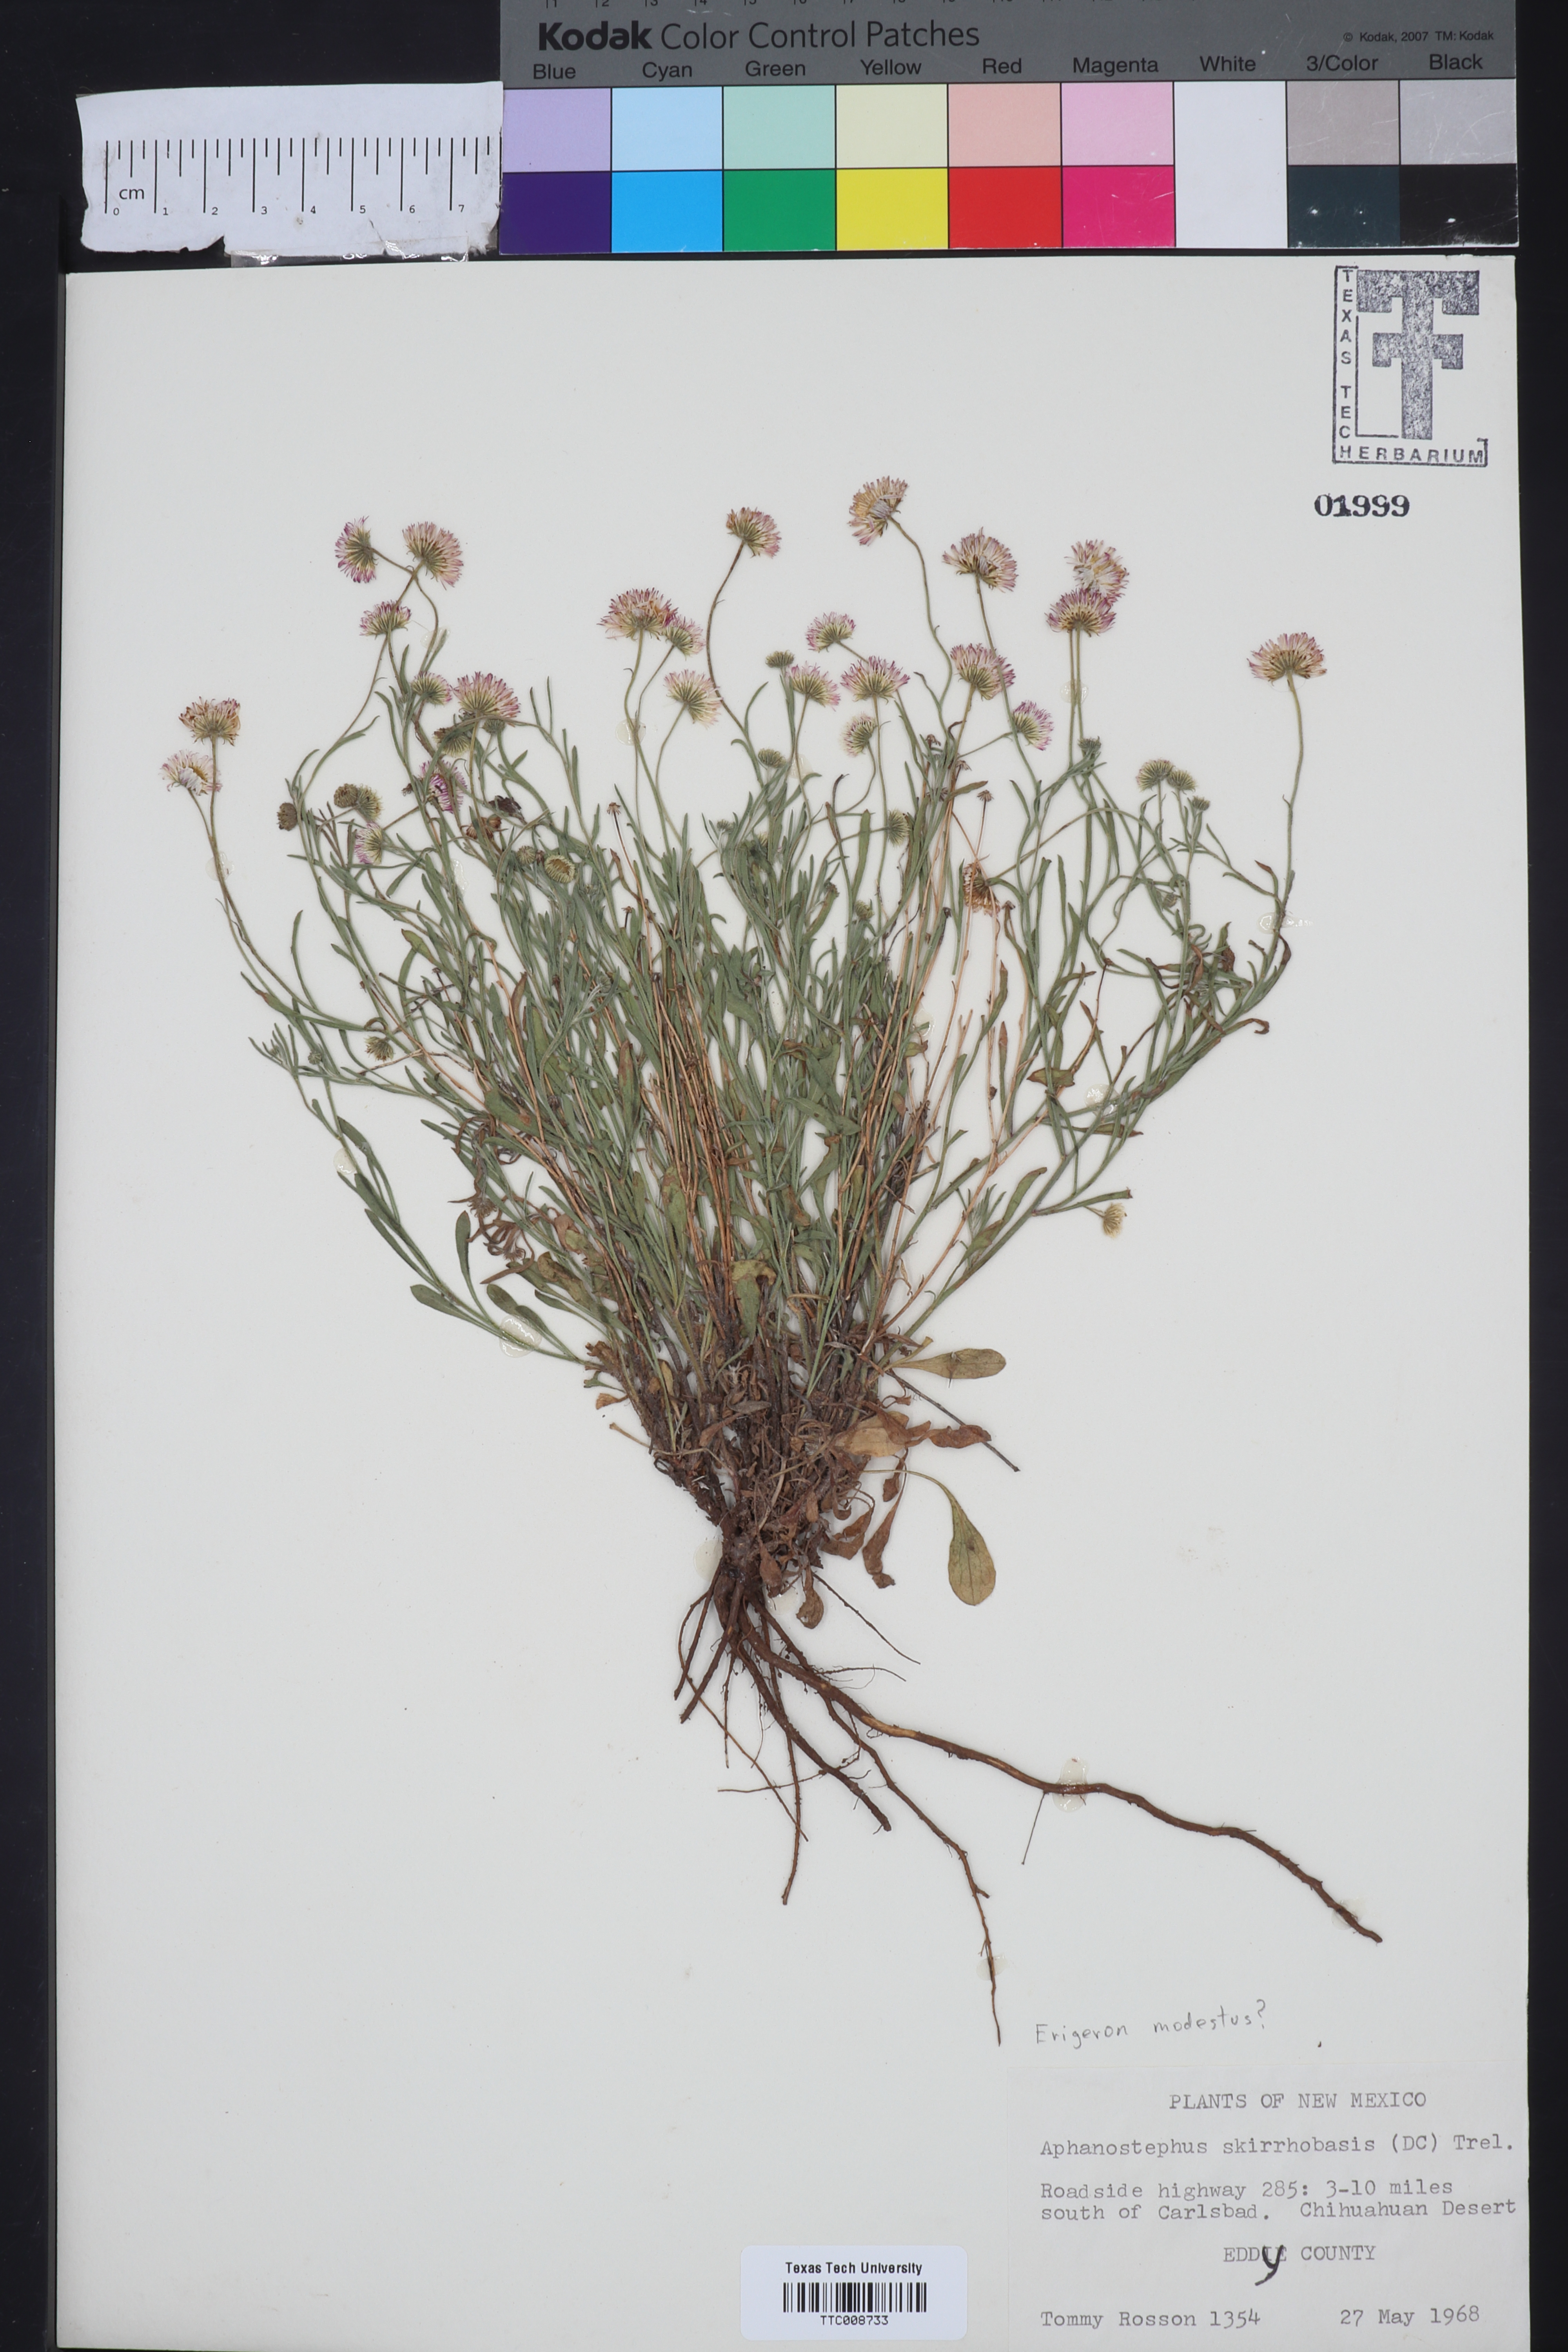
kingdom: Plantae
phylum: Tracheophyta
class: Magnoliopsida
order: Asterales
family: Asteraceae
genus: Erigeron
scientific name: Erigeron
